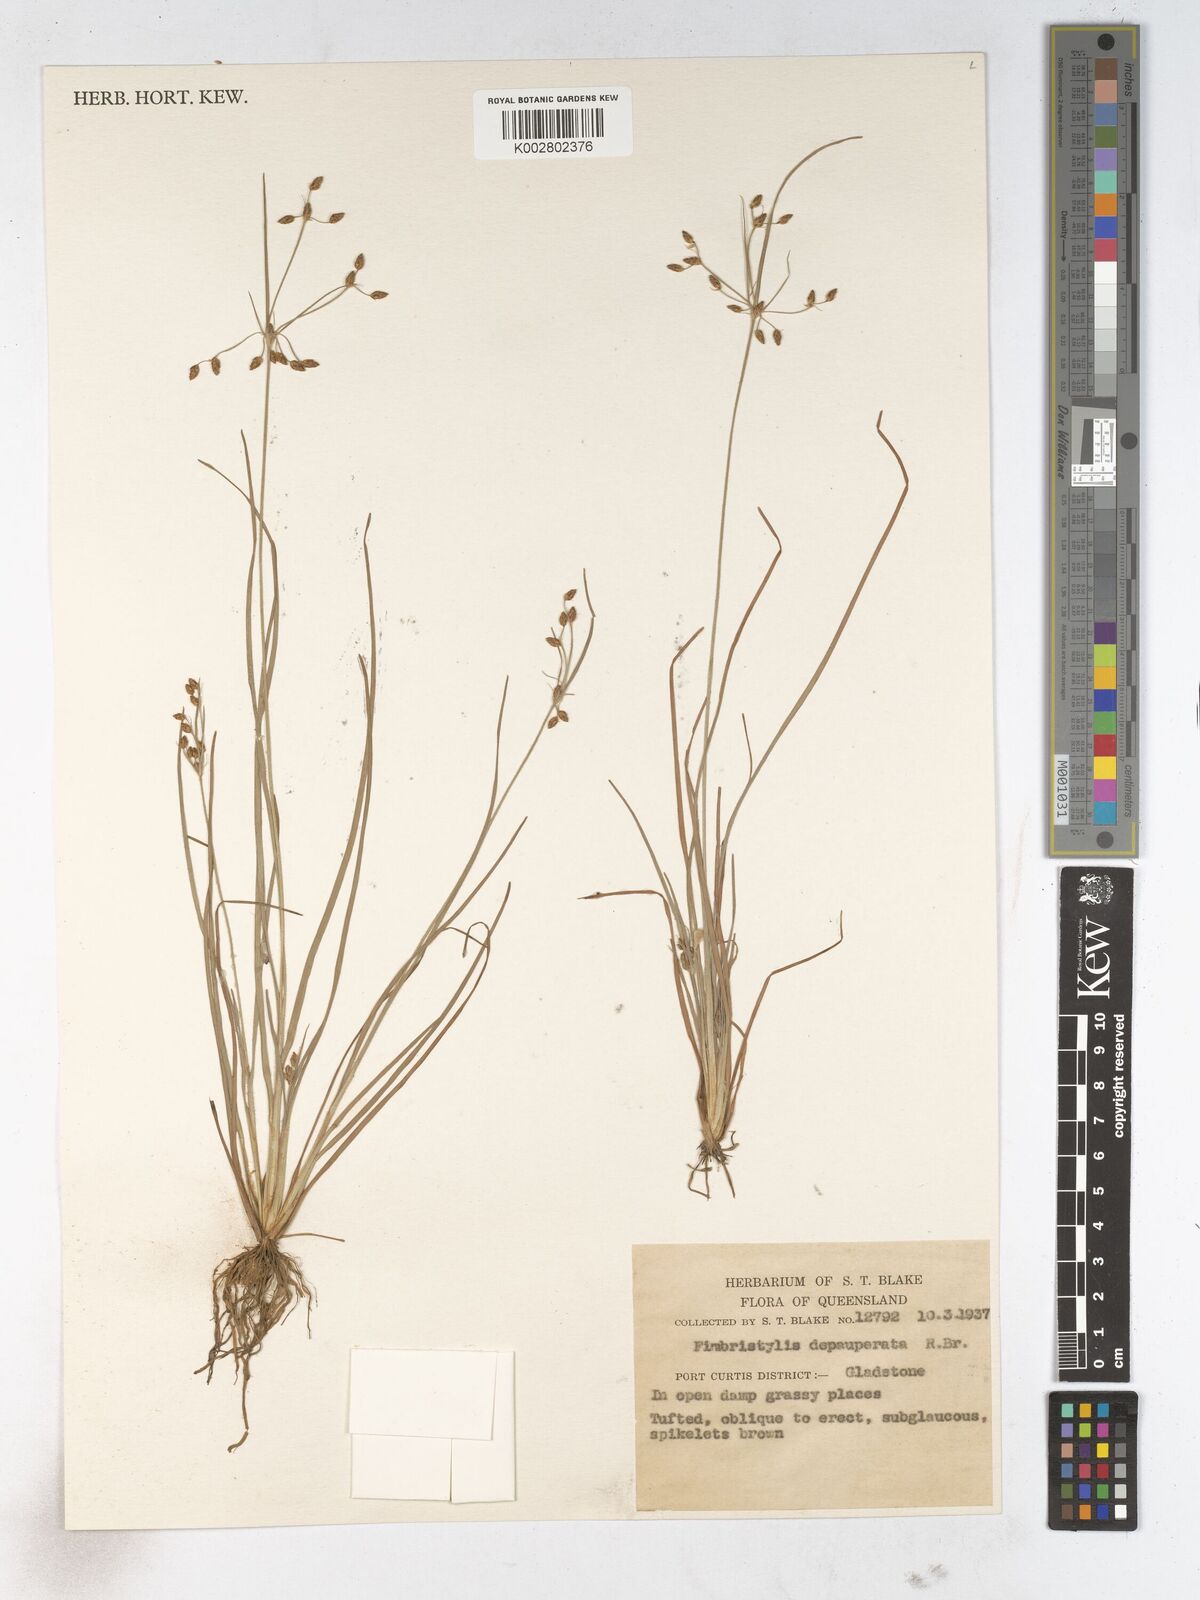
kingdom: Plantae
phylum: Tracheophyta
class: Liliopsida
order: Poales
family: Cyperaceae
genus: Fimbristylis
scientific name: Fimbristylis dichotoma
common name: Forked fimbry
